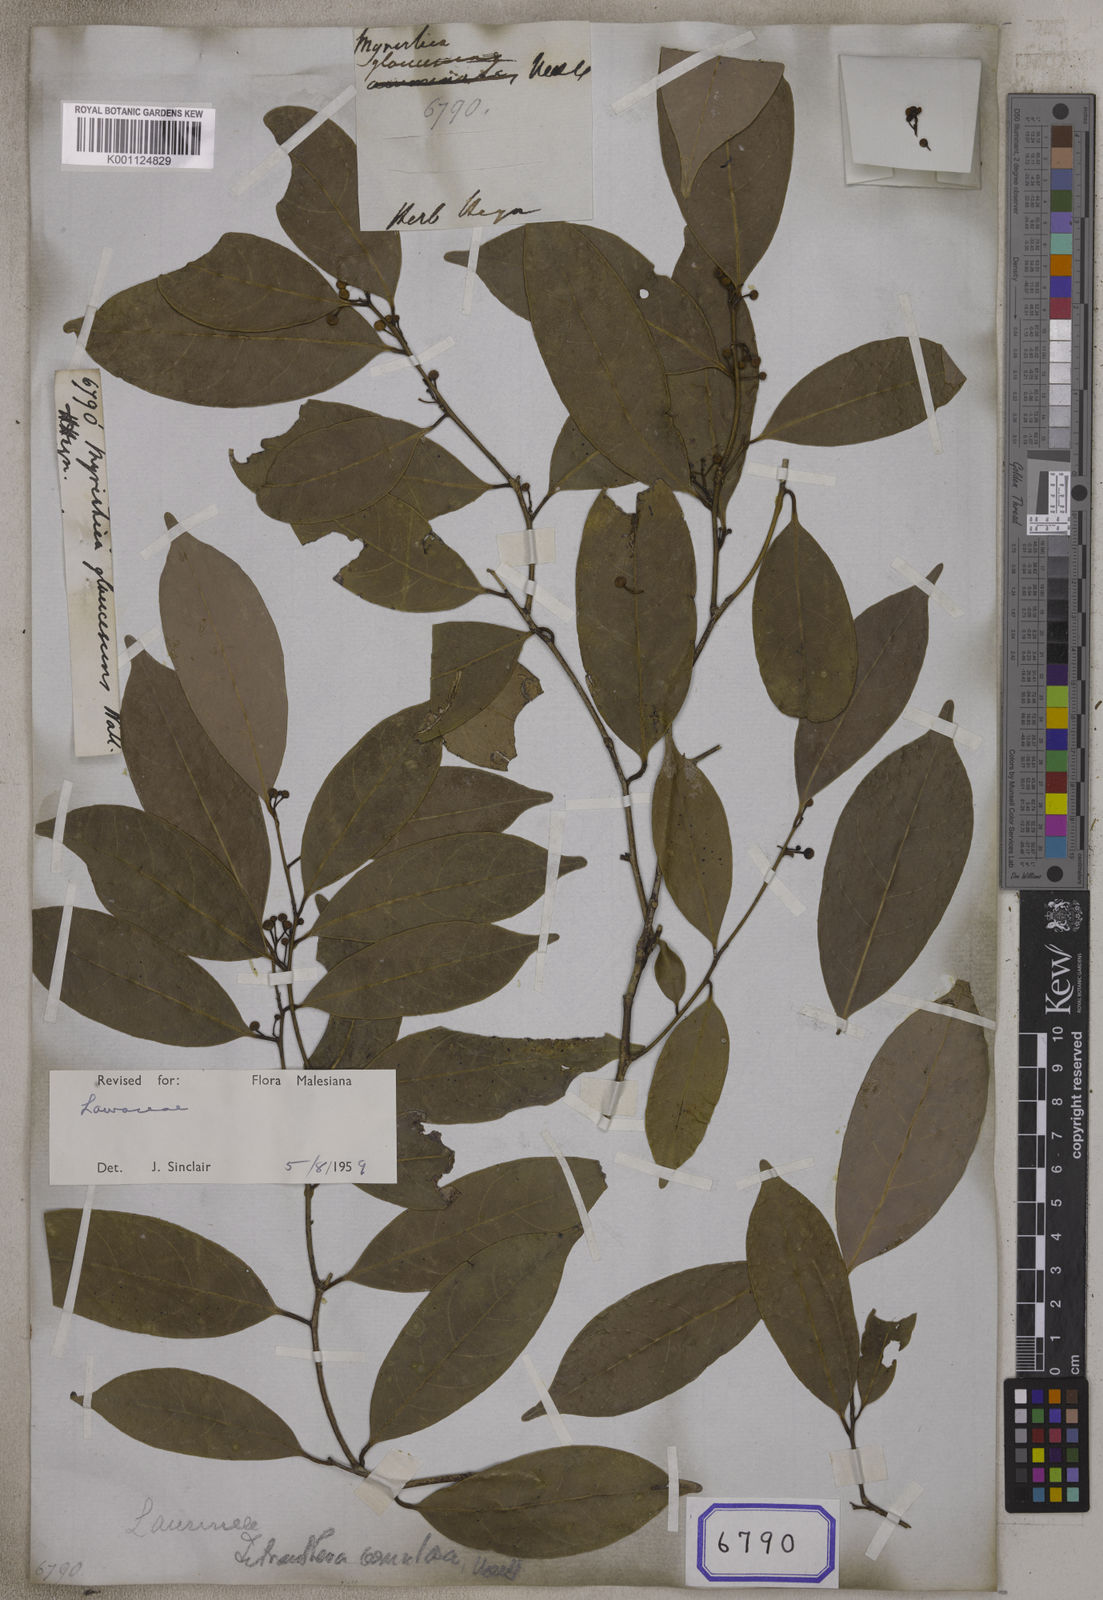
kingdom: Plantae
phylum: Tracheophyta
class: Magnoliopsida
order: Laurales
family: Lauraceae
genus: Litsea
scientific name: Litsea venulosa
